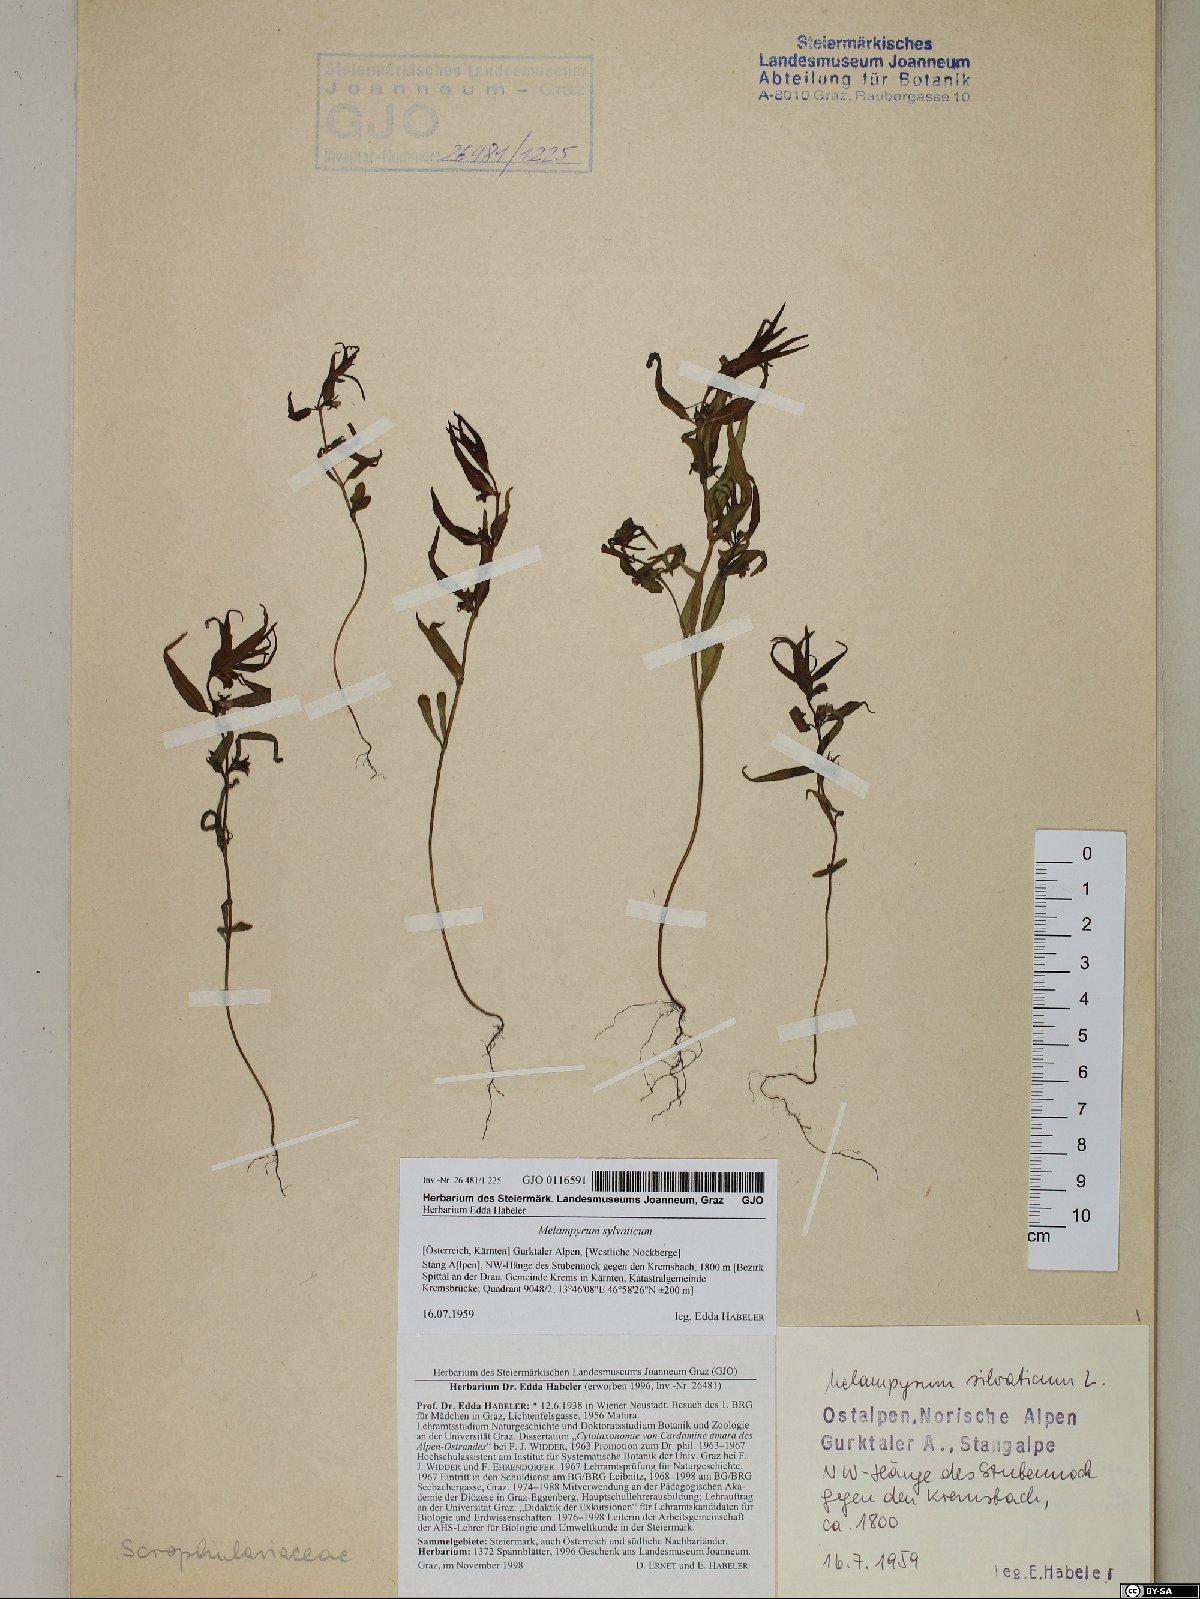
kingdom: Plantae
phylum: Tracheophyta
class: Magnoliopsida
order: Lamiales
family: Orobanchaceae
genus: Melampyrum
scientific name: Melampyrum sylvaticum
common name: Small cow-wheat
